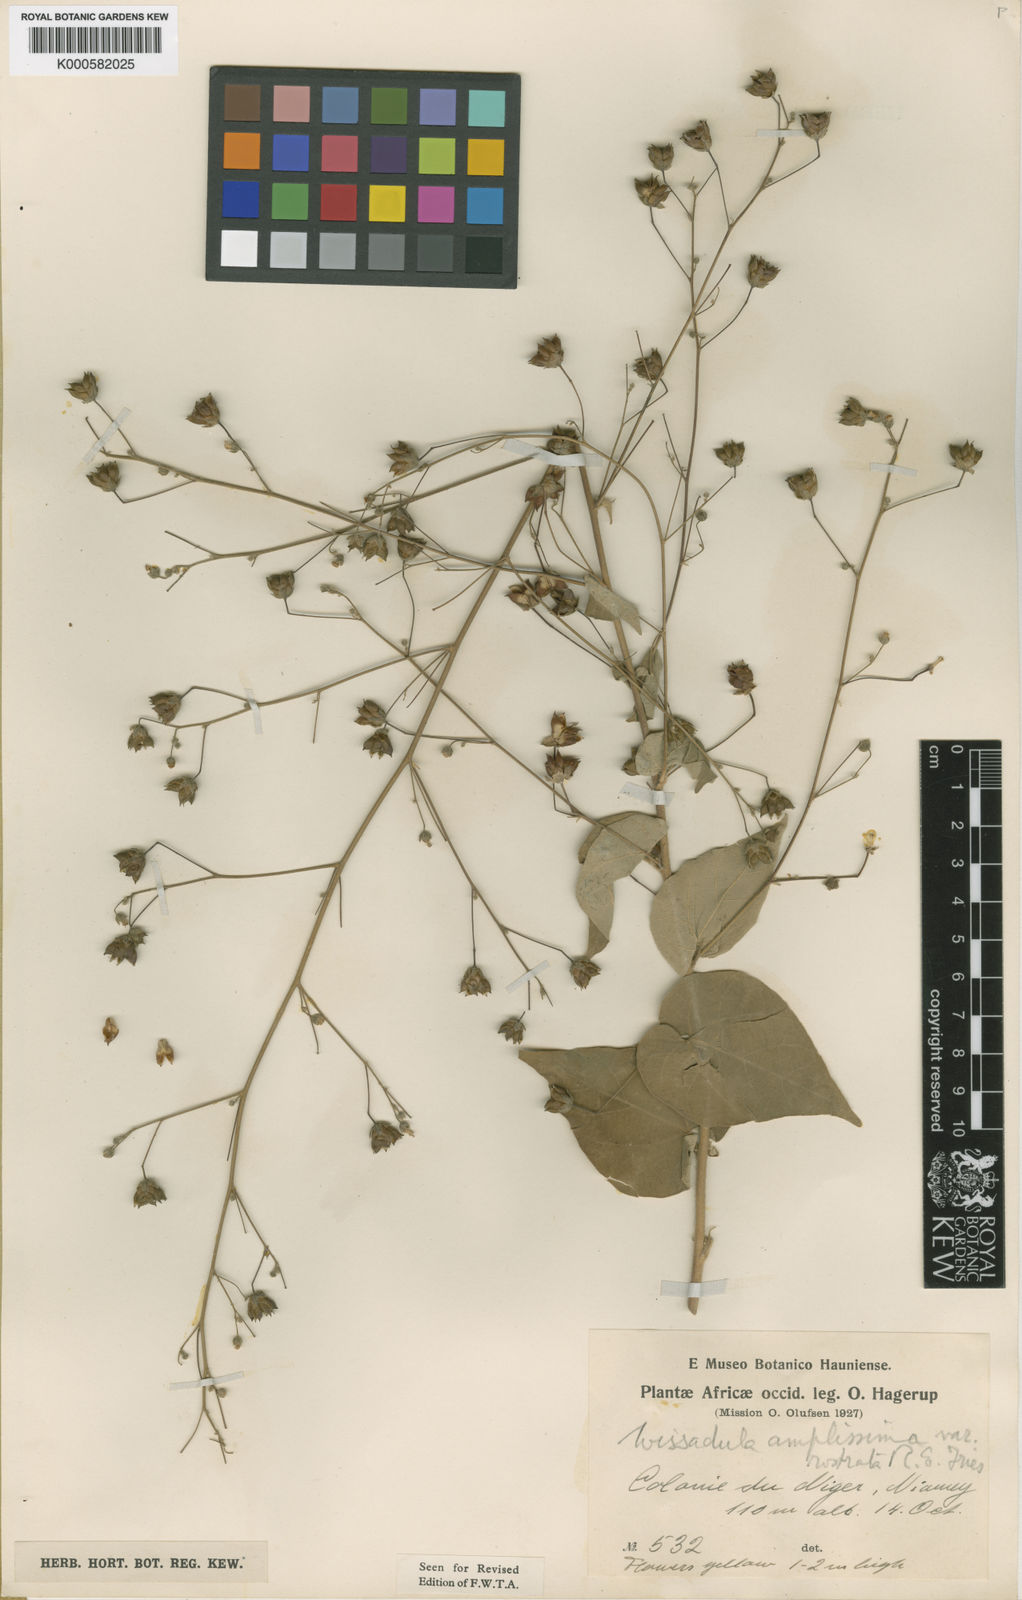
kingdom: Plantae
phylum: Tracheophyta
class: Magnoliopsida
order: Malvales
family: Malvaceae
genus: Wissadula
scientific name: Wissadula
